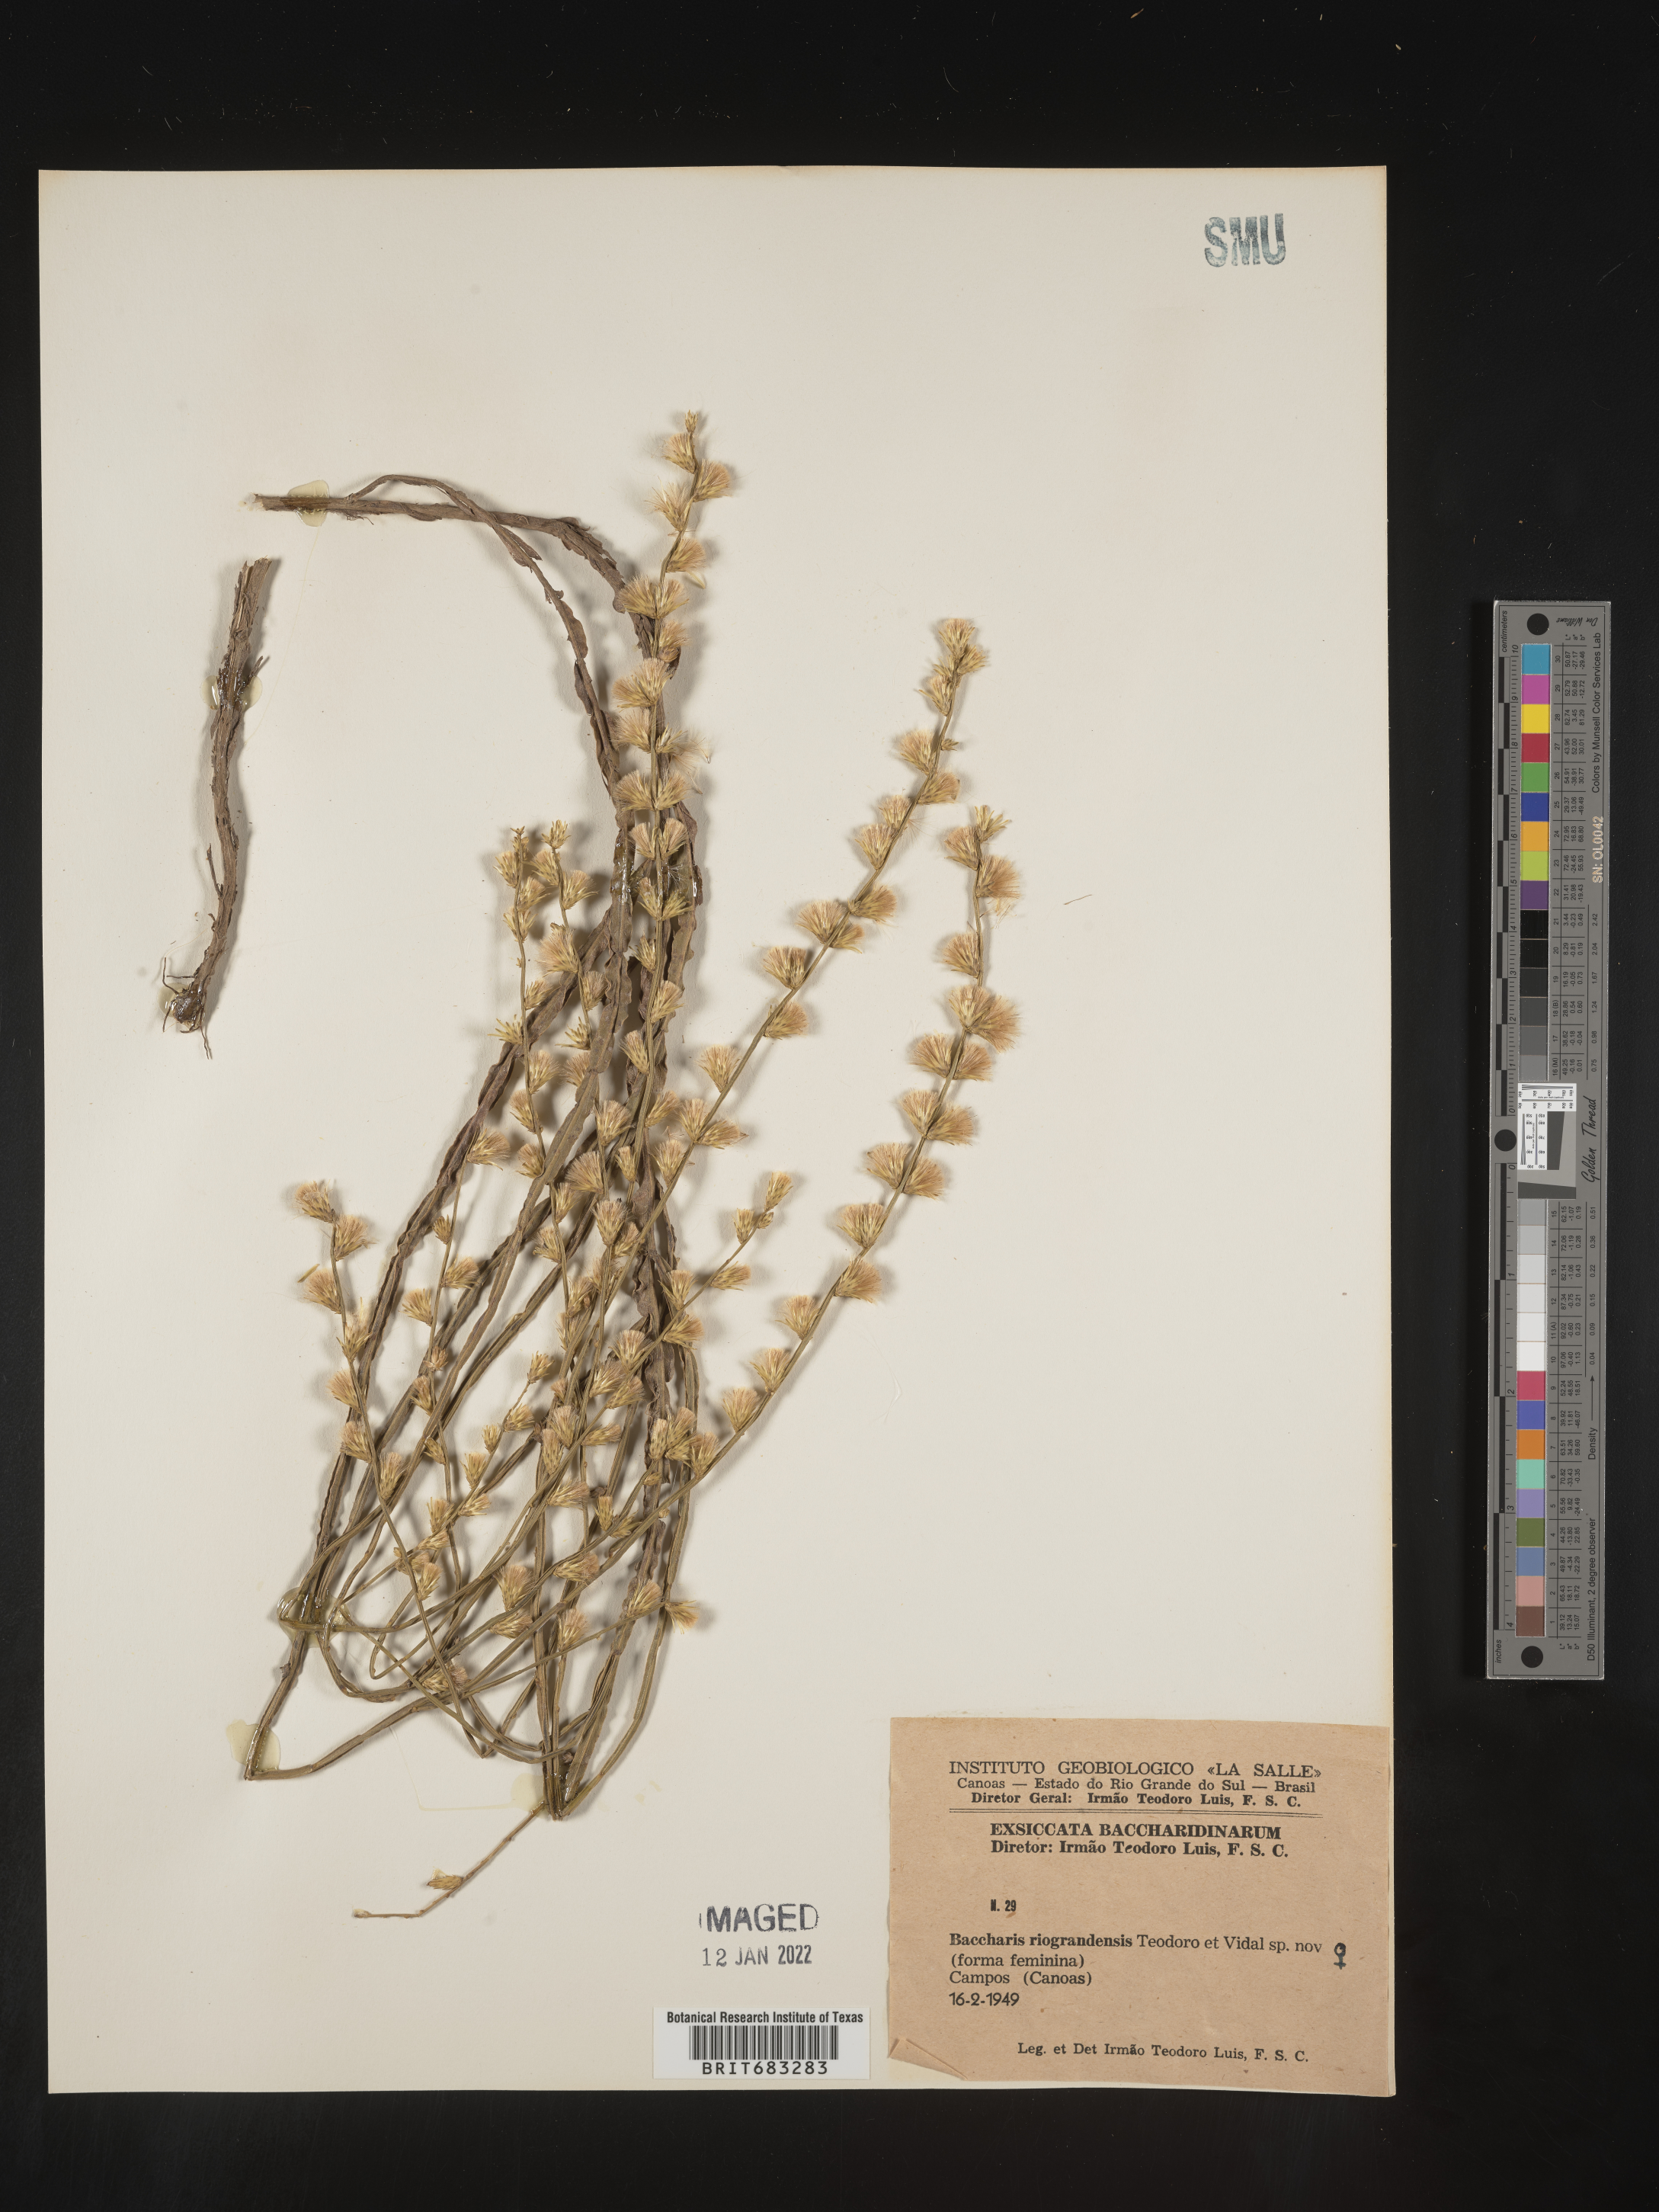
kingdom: Plantae
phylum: Tracheophyta
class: Magnoliopsida
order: Asterales
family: Asteraceae
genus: Baccharis
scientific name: Baccharis
